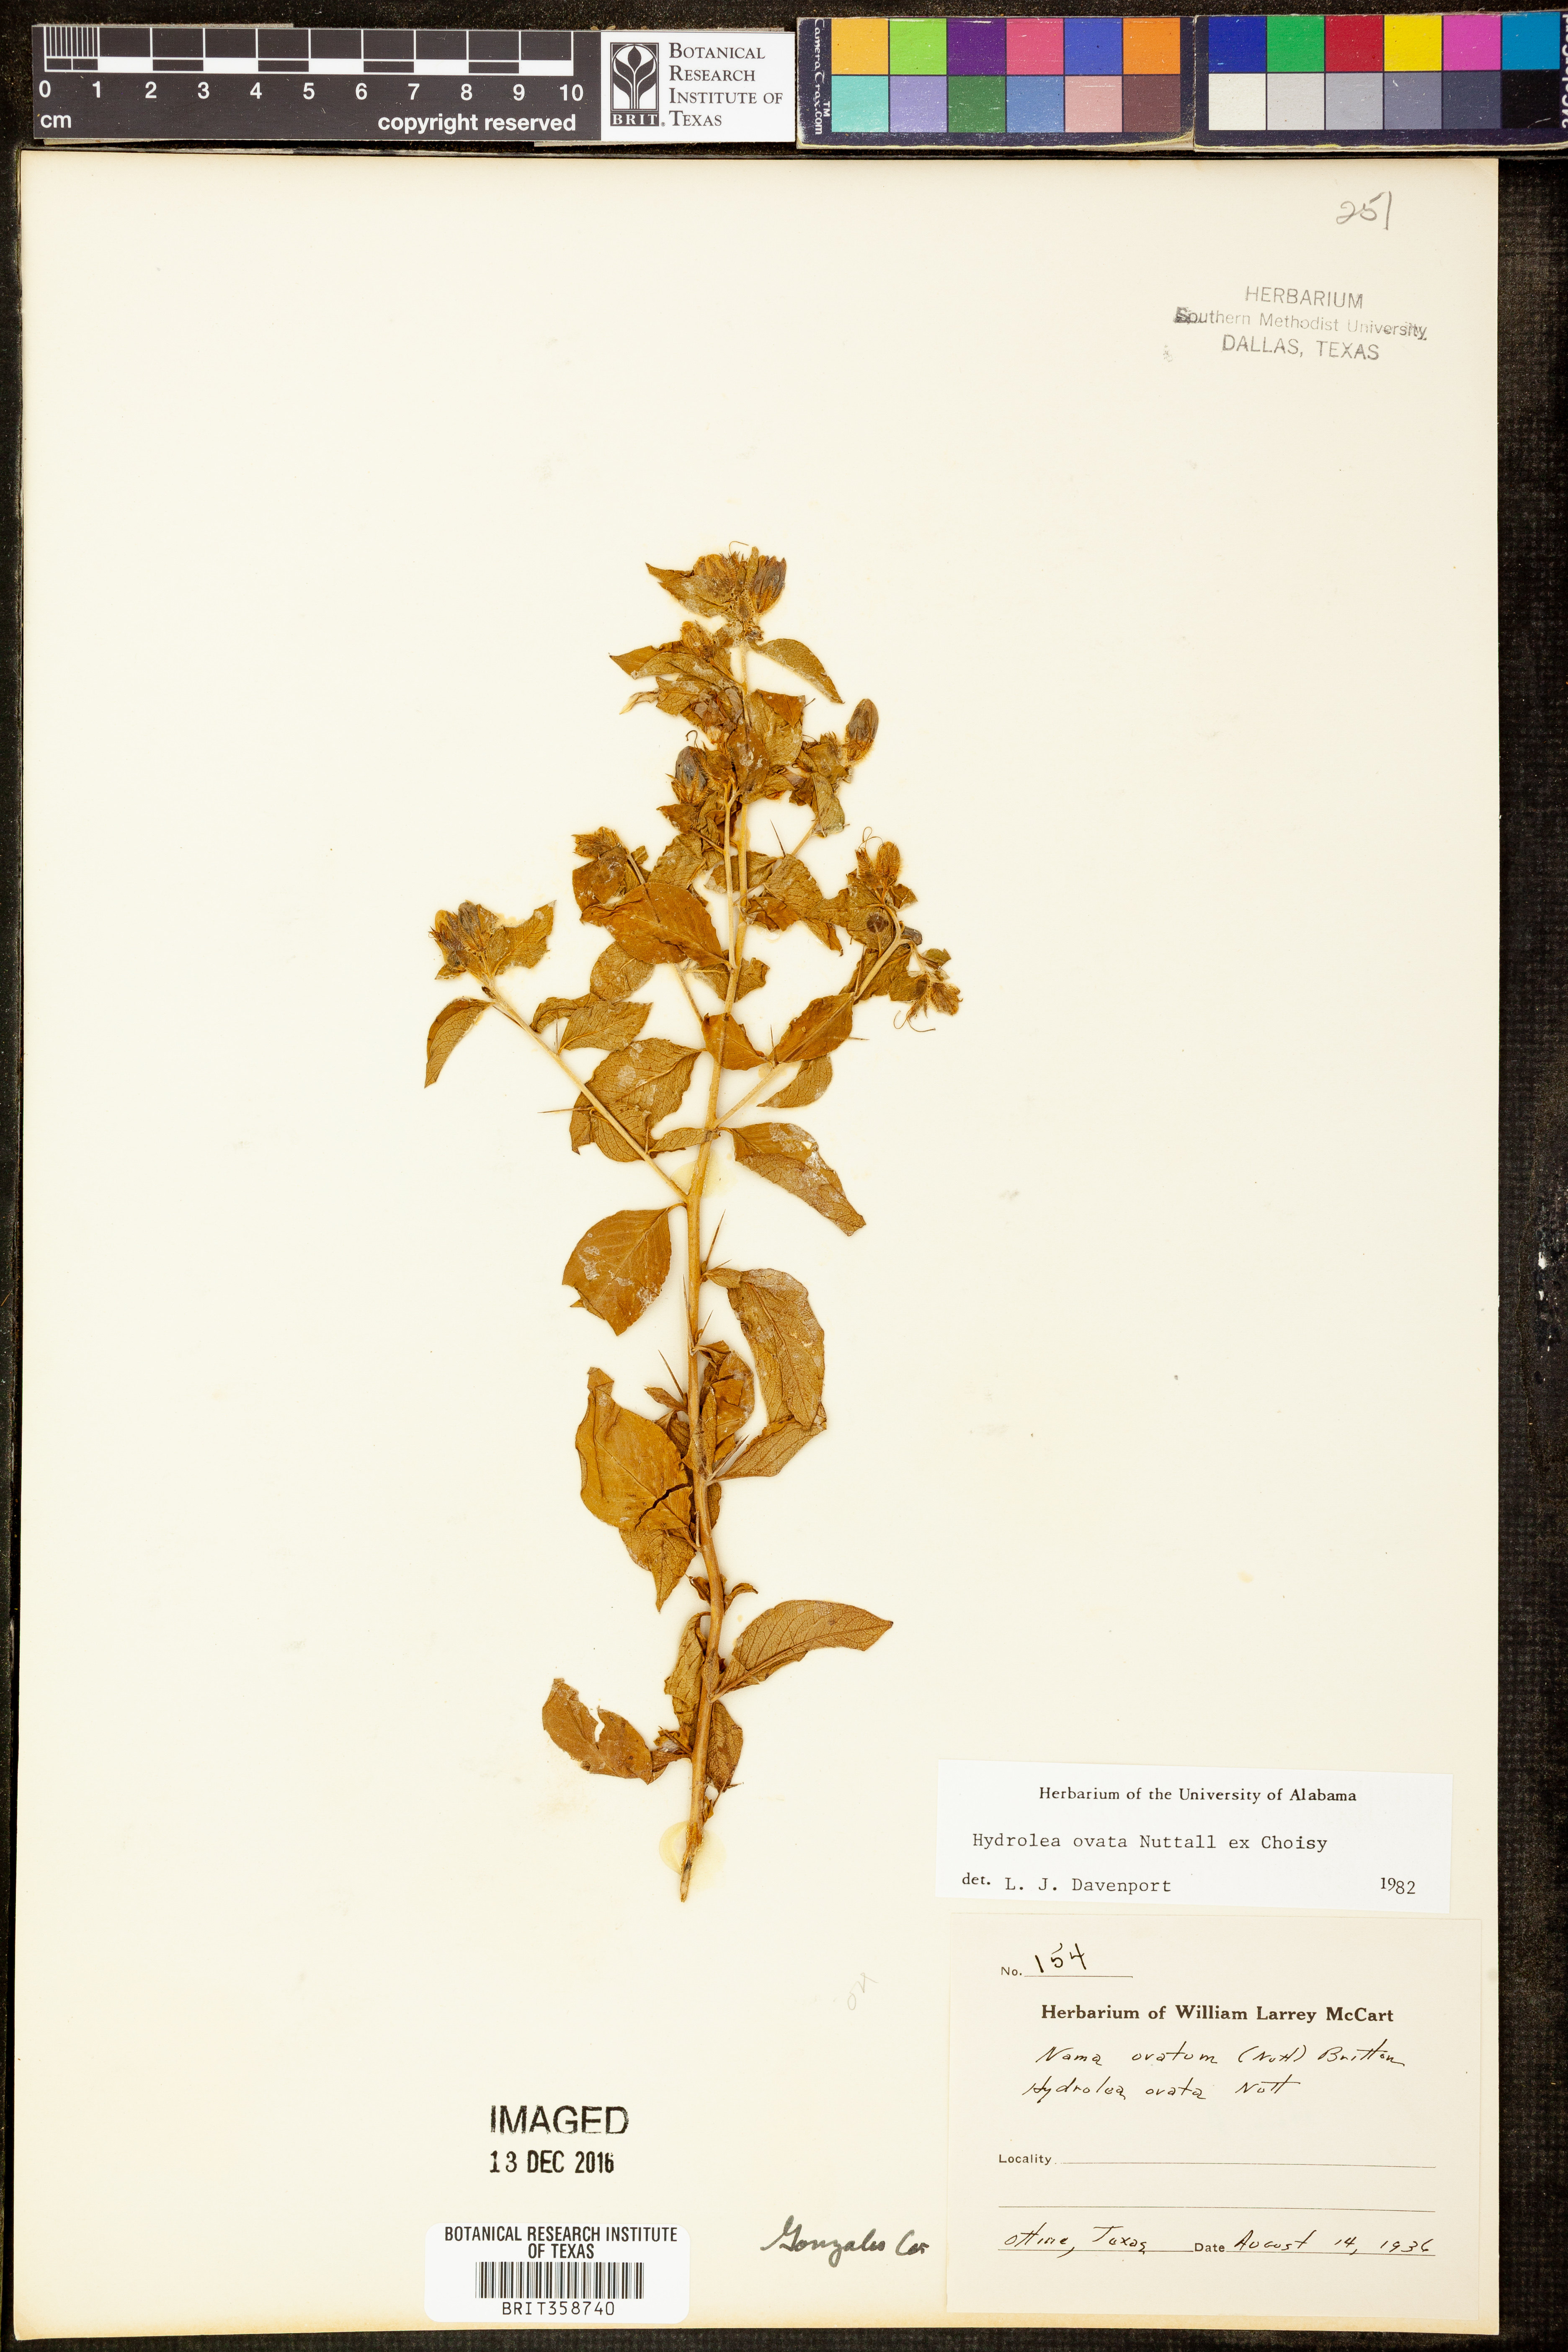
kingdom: Plantae
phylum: Tracheophyta
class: Magnoliopsida
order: Solanales
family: Hydroleaceae
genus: Hydrolea
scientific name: Hydrolea ovata
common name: Ovate false fiddleleaf
